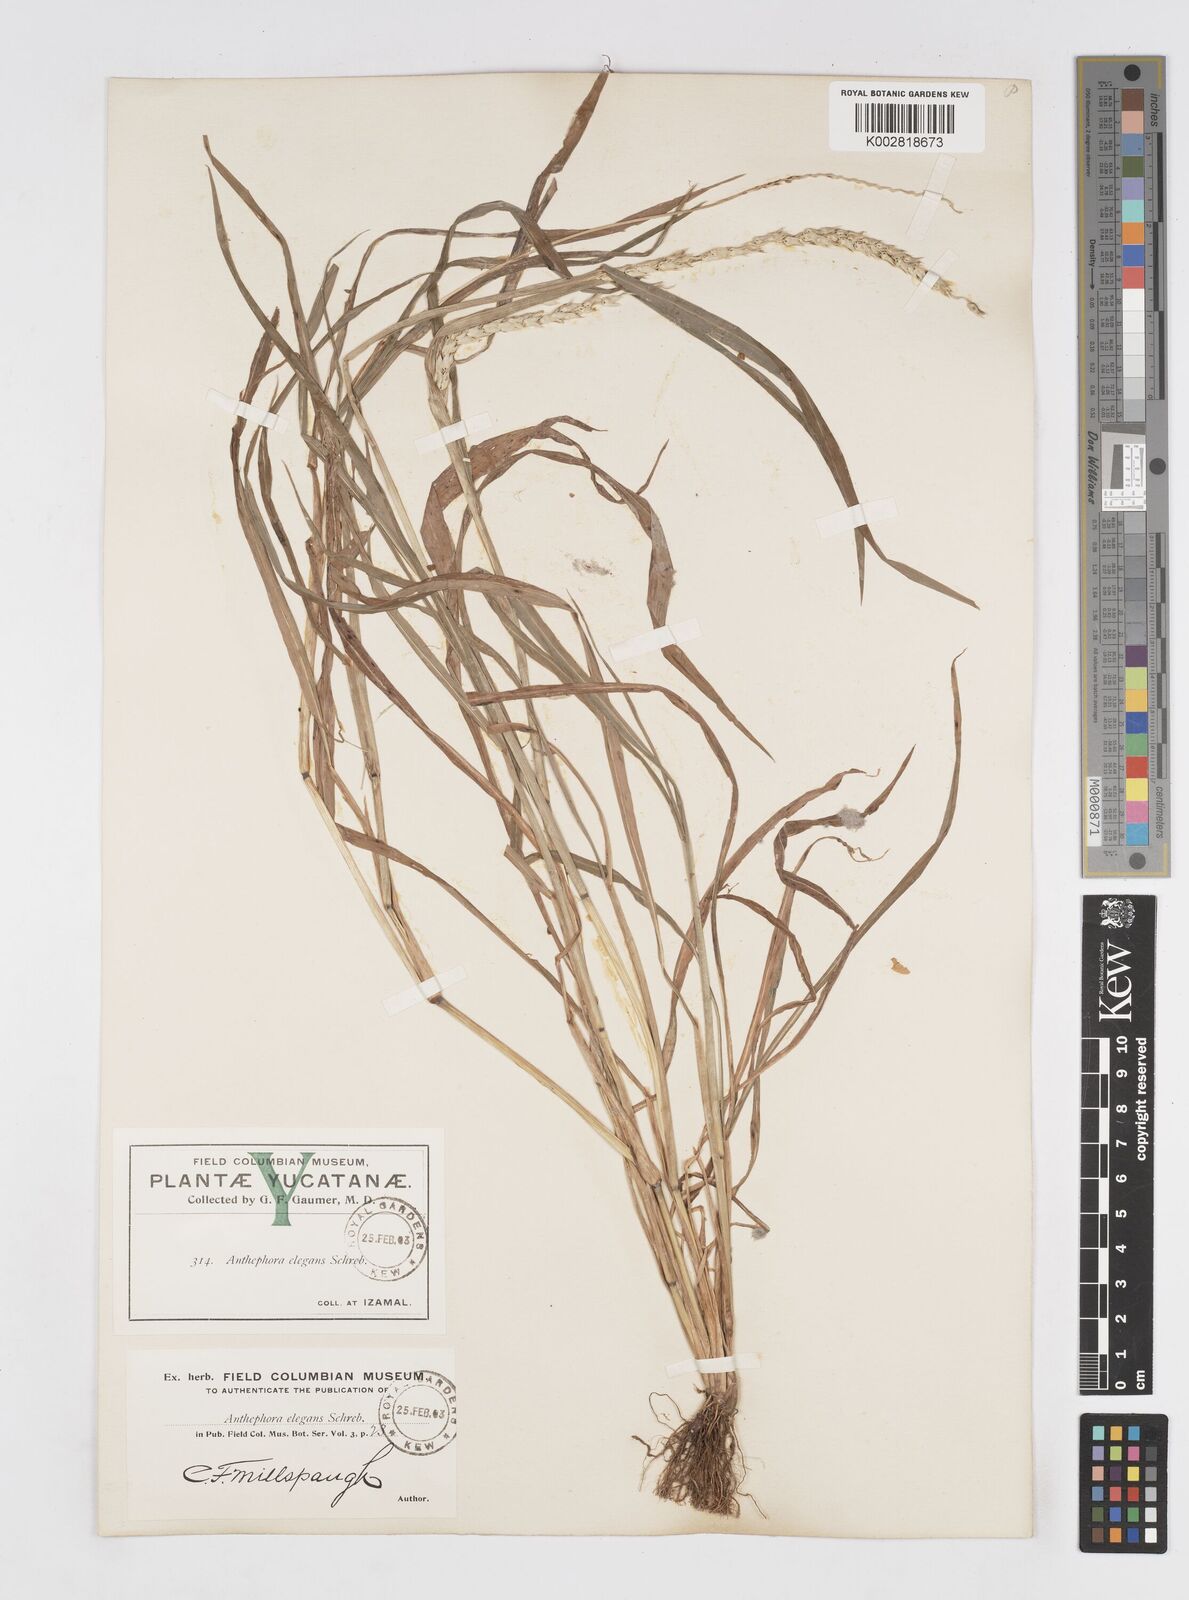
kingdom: Plantae
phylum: Tracheophyta
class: Liliopsida
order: Poales
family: Poaceae
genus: Anthephora
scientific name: Anthephora hermaphrodita
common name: Oldfield grass
